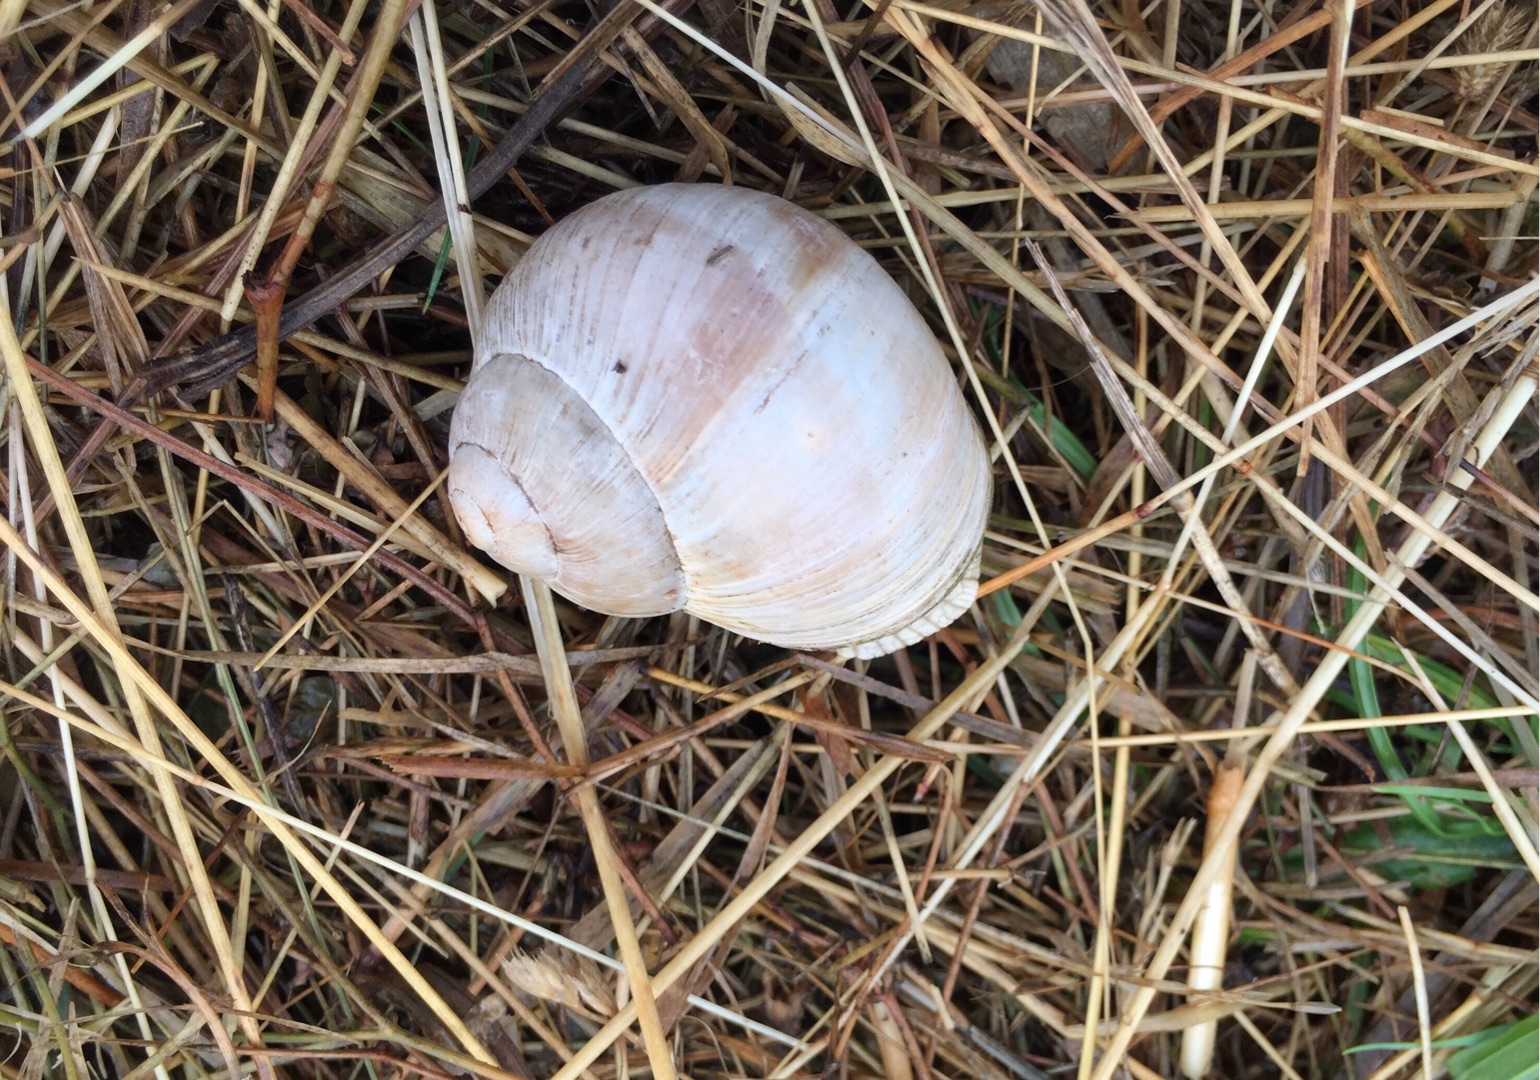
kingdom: Animalia
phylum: Mollusca
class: Gastropoda
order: Stylommatophora
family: Helicidae
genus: Helix
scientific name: Helix pomatia
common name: Vinbjergsnegl
